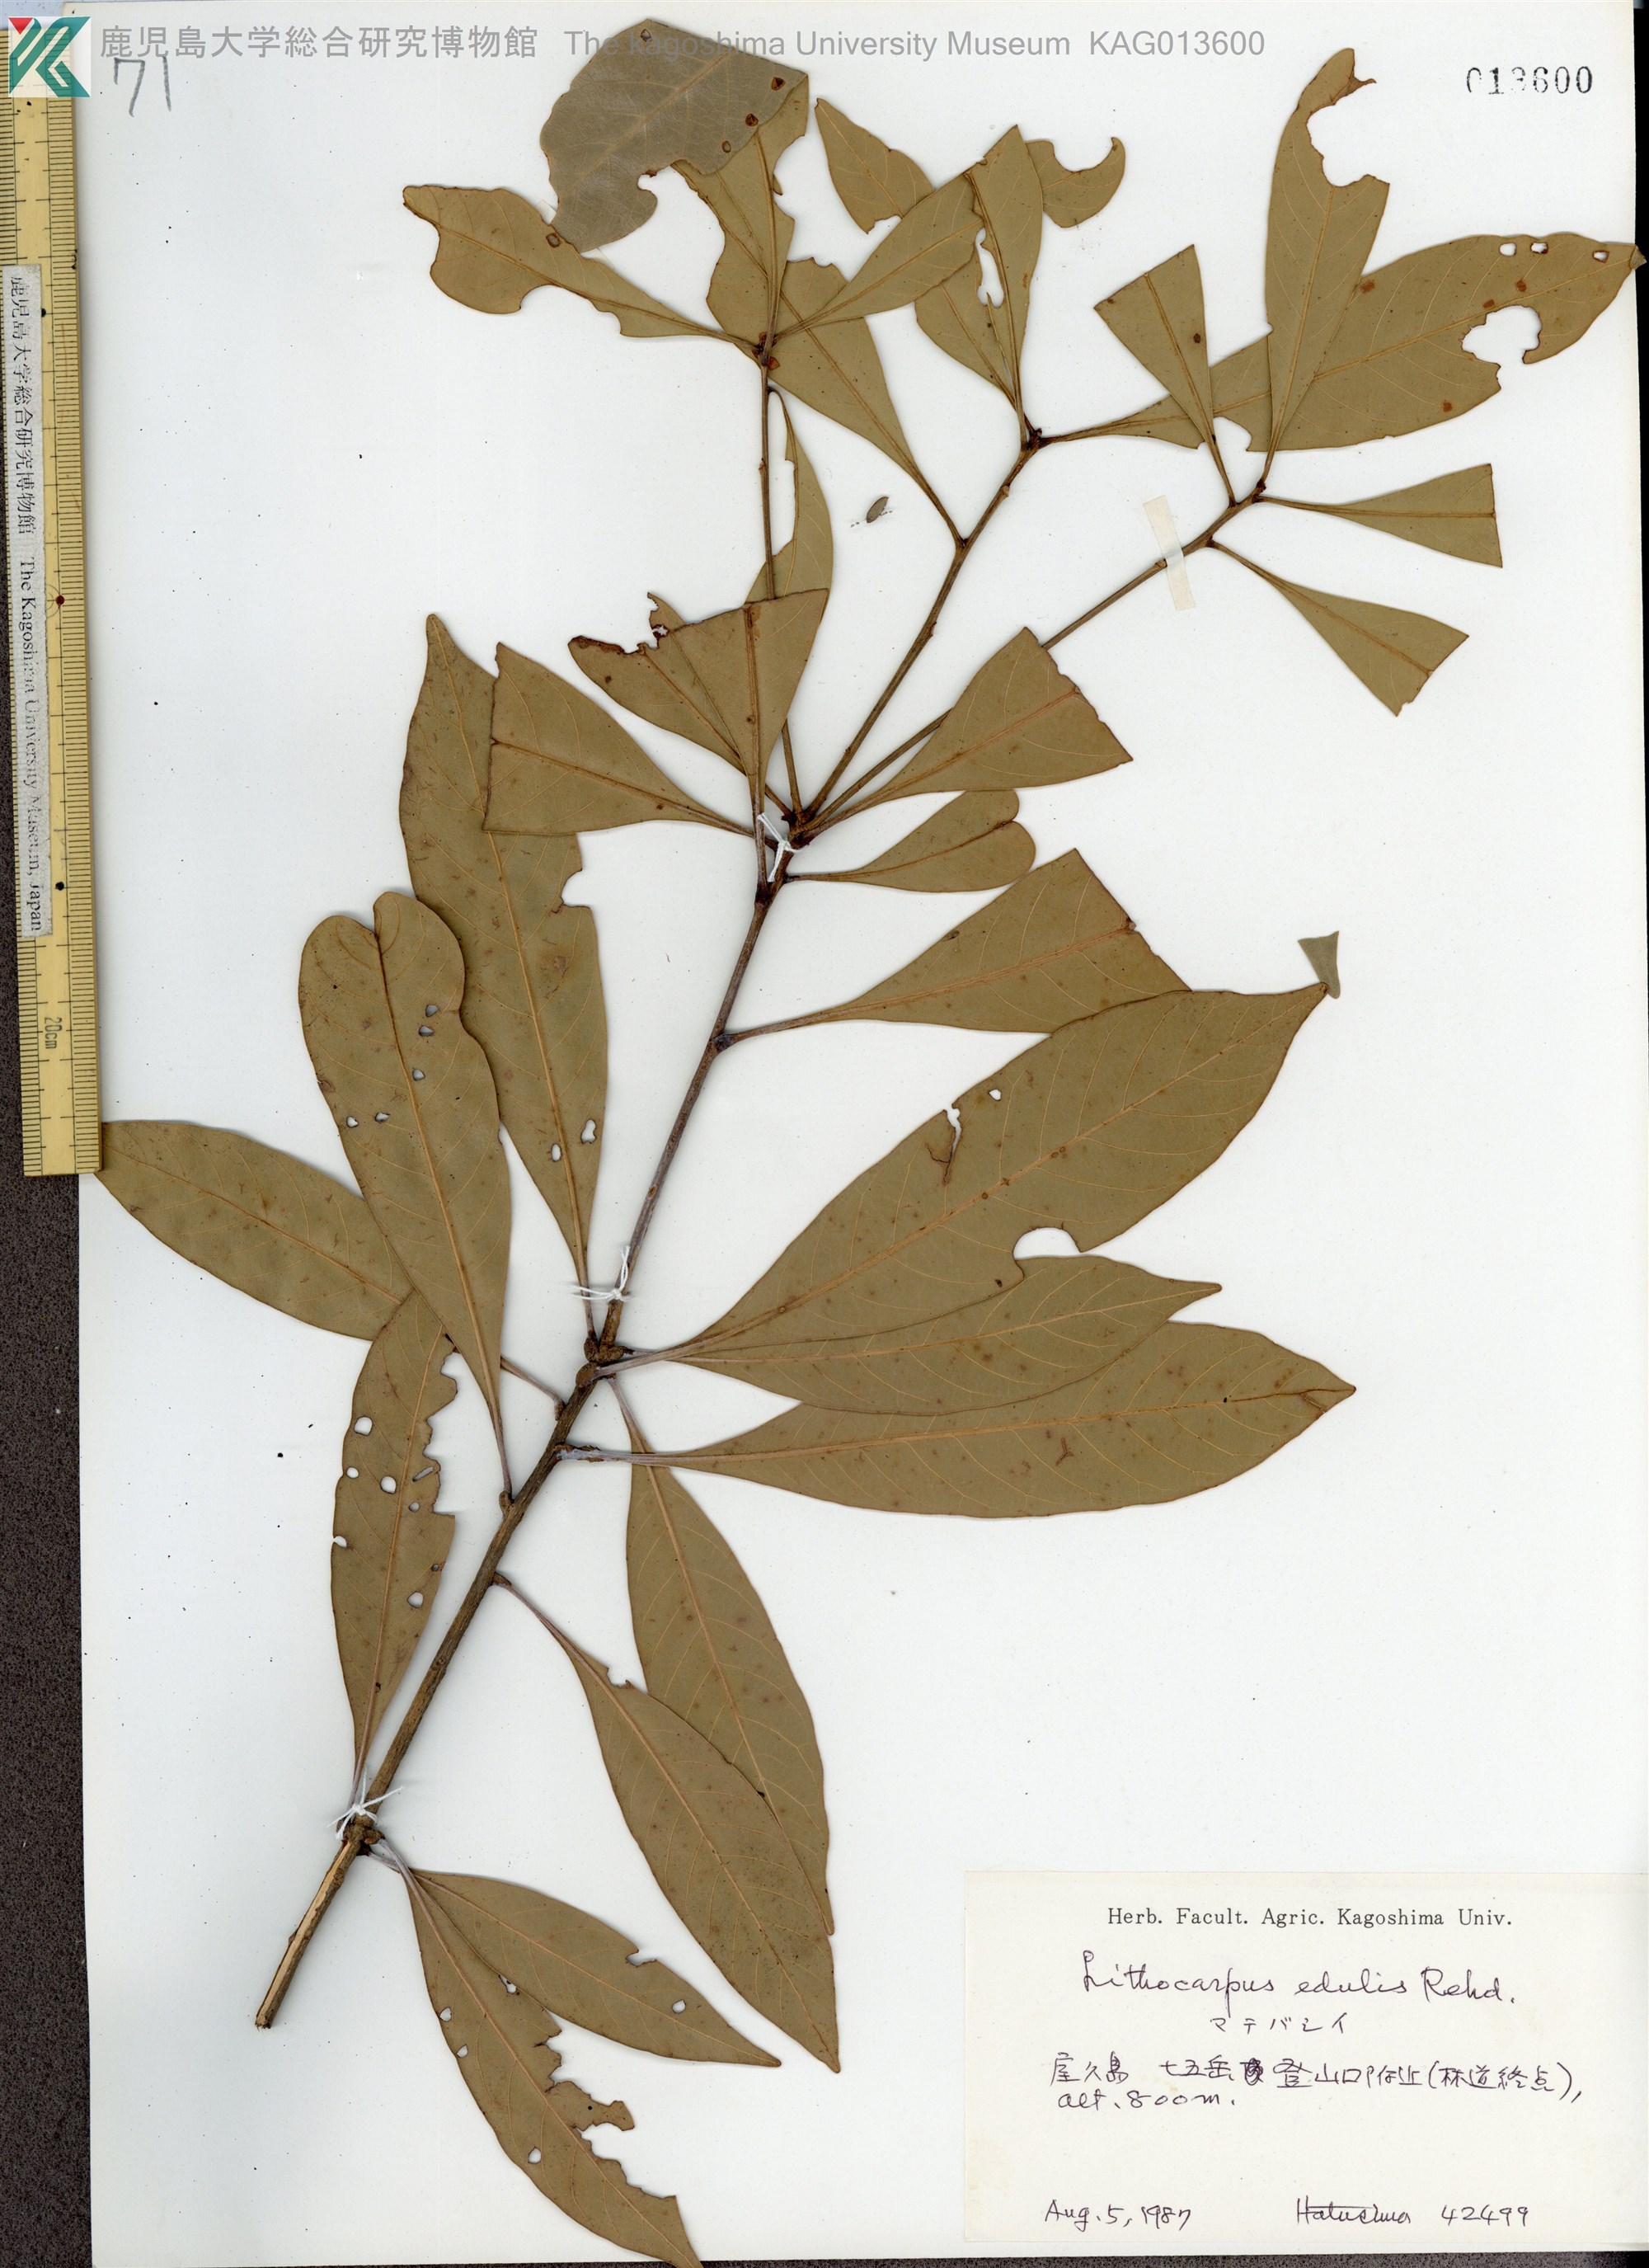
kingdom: Plantae
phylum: Tracheophyta
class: Magnoliopsida
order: Fagales
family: Fagaceae
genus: Lithocarpus
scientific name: Lithocarpus edulis
